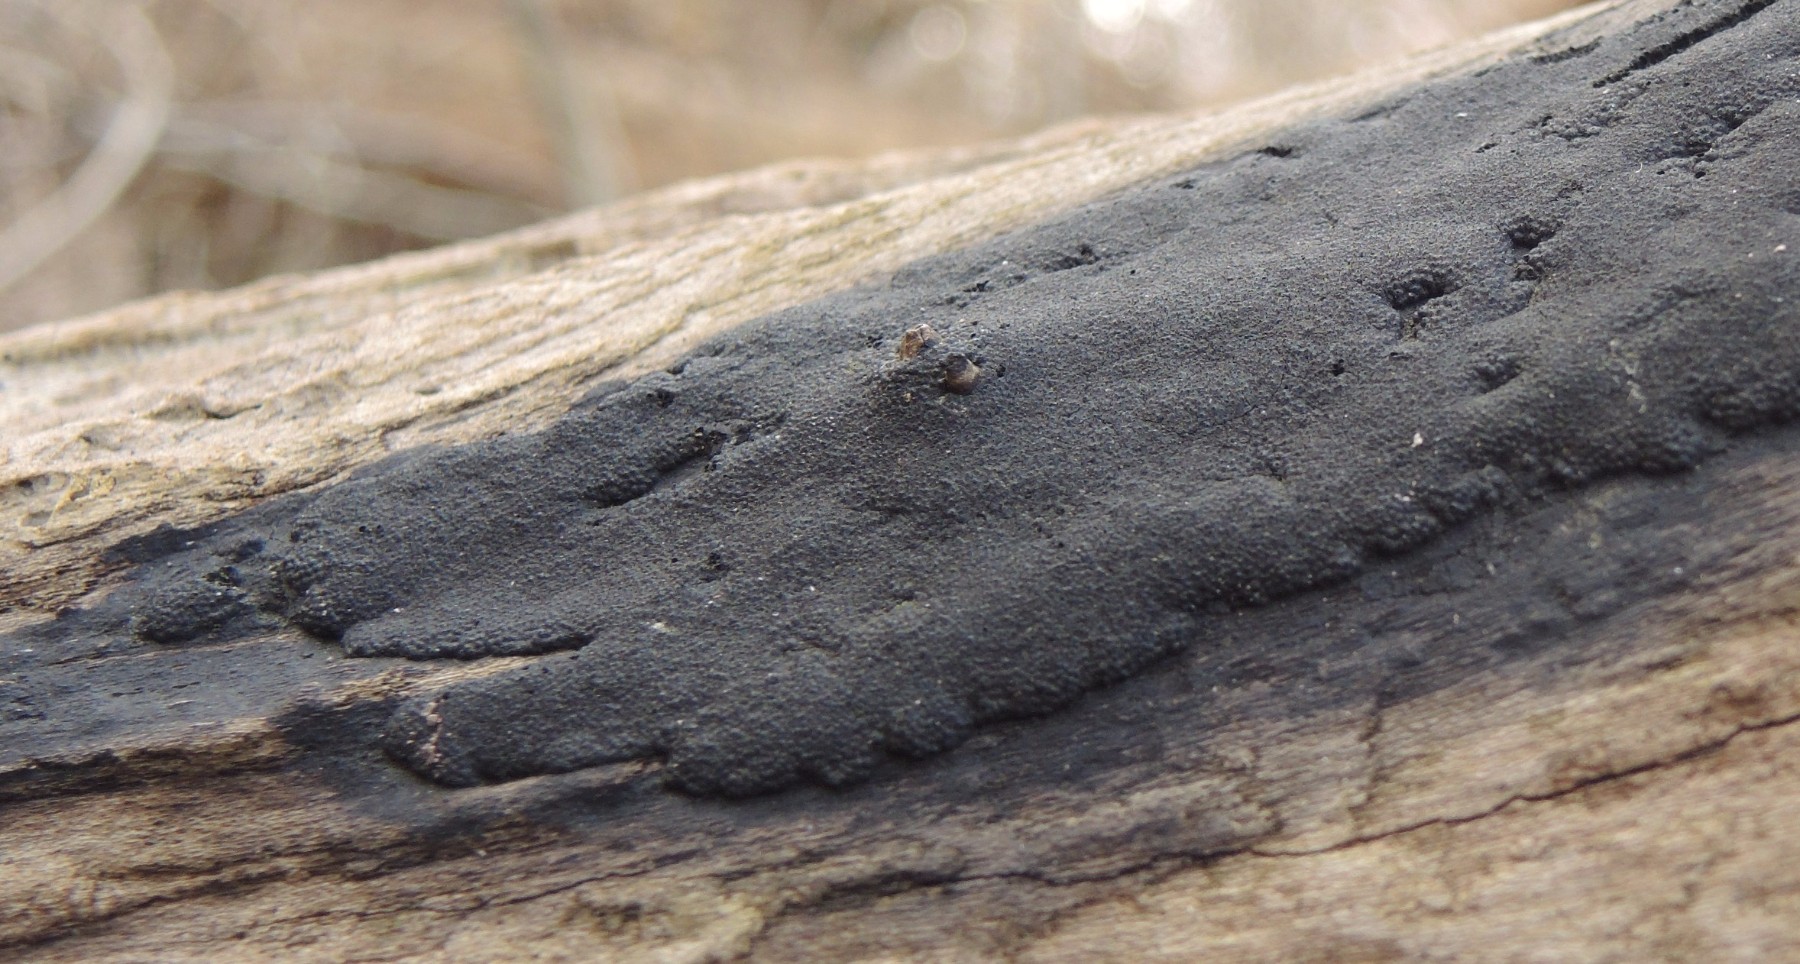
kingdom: Fungi
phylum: Ascomycota
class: Sordariomycetes
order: Xylariales
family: Hypoxylaceae
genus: Hypoxylon
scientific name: Hypoxylon macrocarpum
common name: skorpe-kulbær
